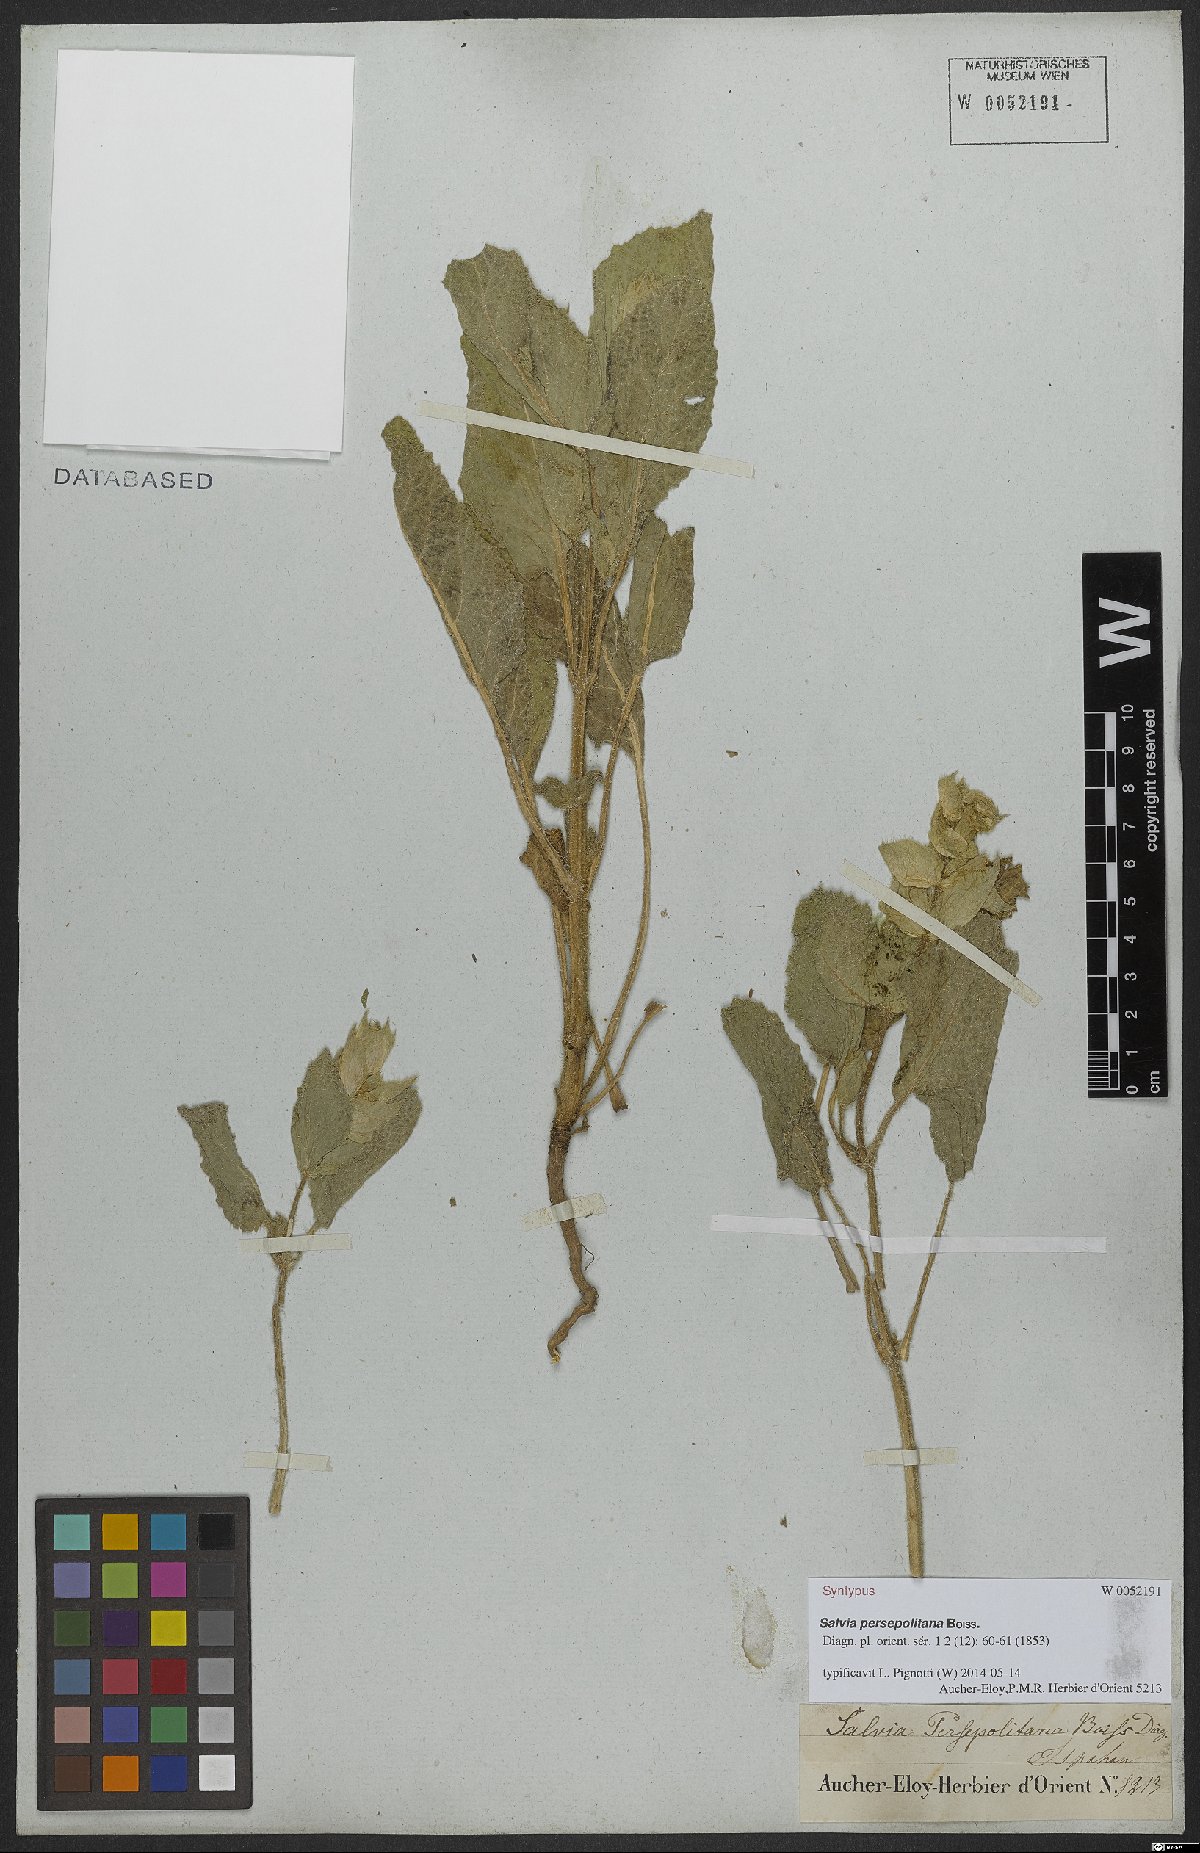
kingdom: Plantae
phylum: Tracheophyta
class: Magnoliopsida
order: Lamiales
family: Lamiaceae
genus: Salvia
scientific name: Salvia persepolitana
